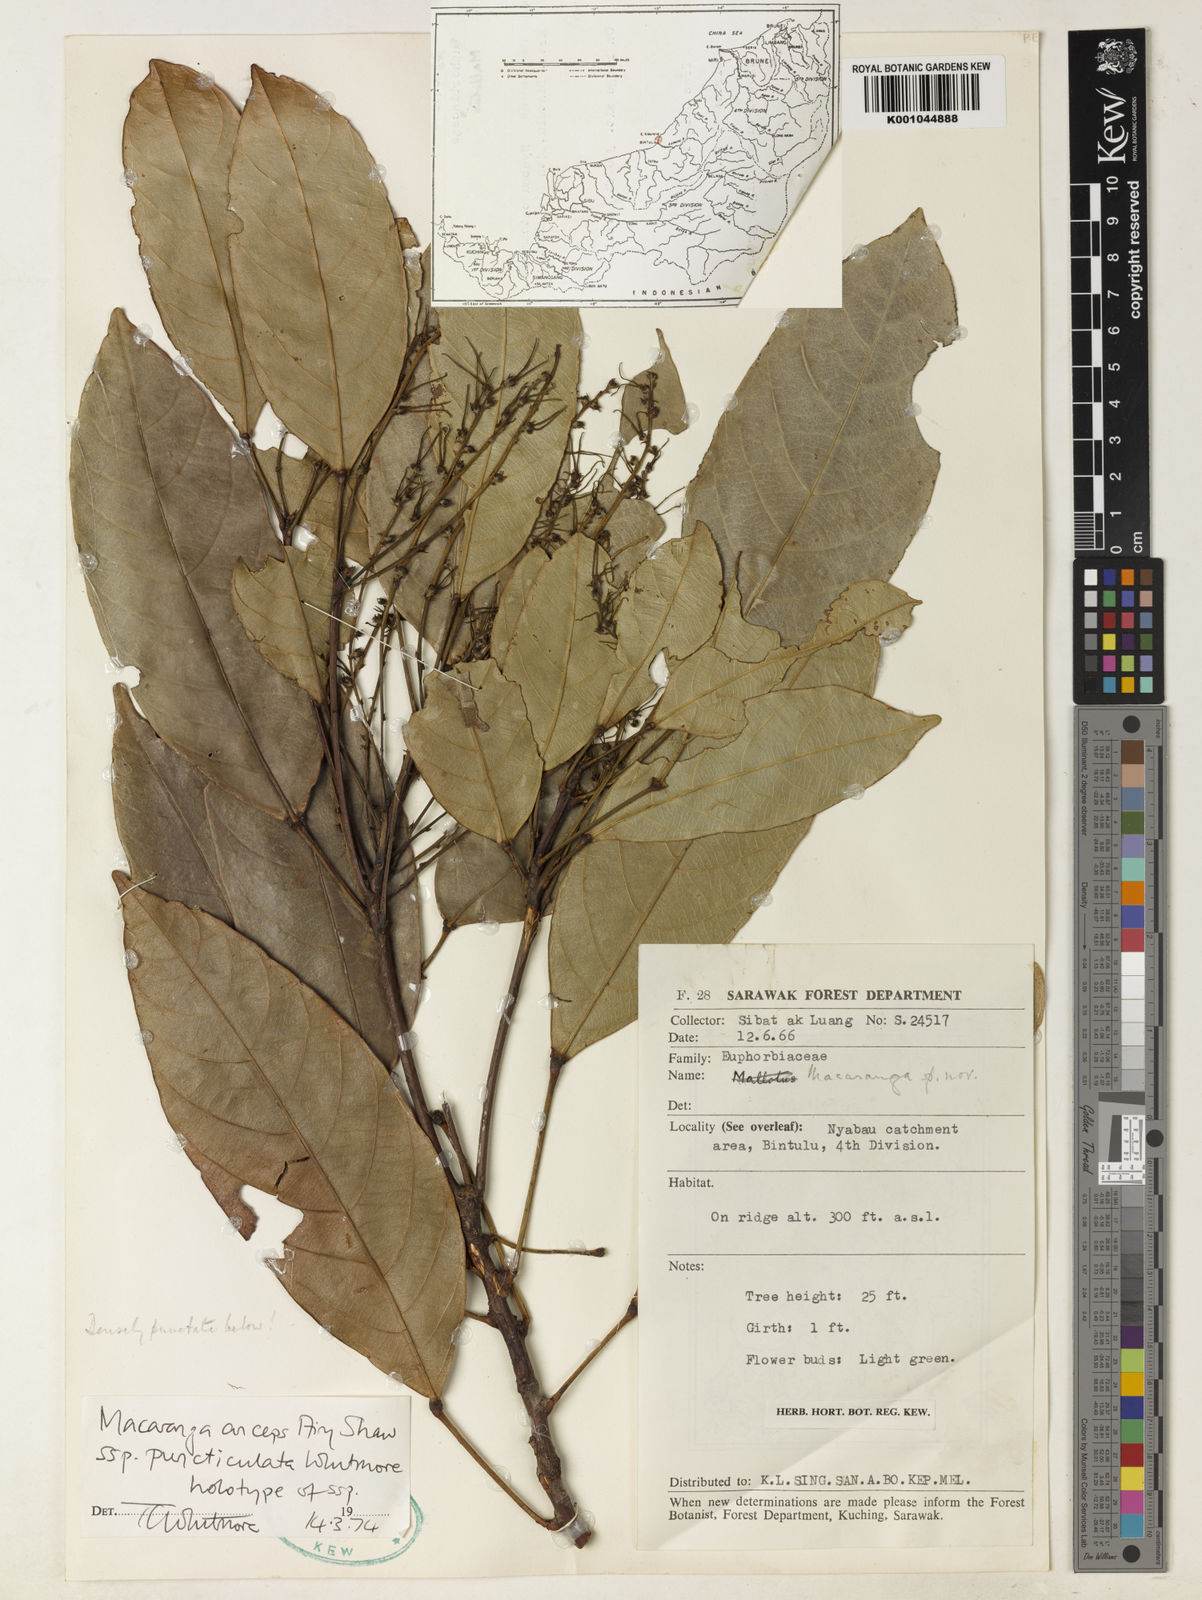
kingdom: Plantae
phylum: Tracheophyta
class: Magnoliopsida
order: Malpighiales
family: Euphorbiaceae
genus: Macaranga
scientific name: Macaranga anceps
